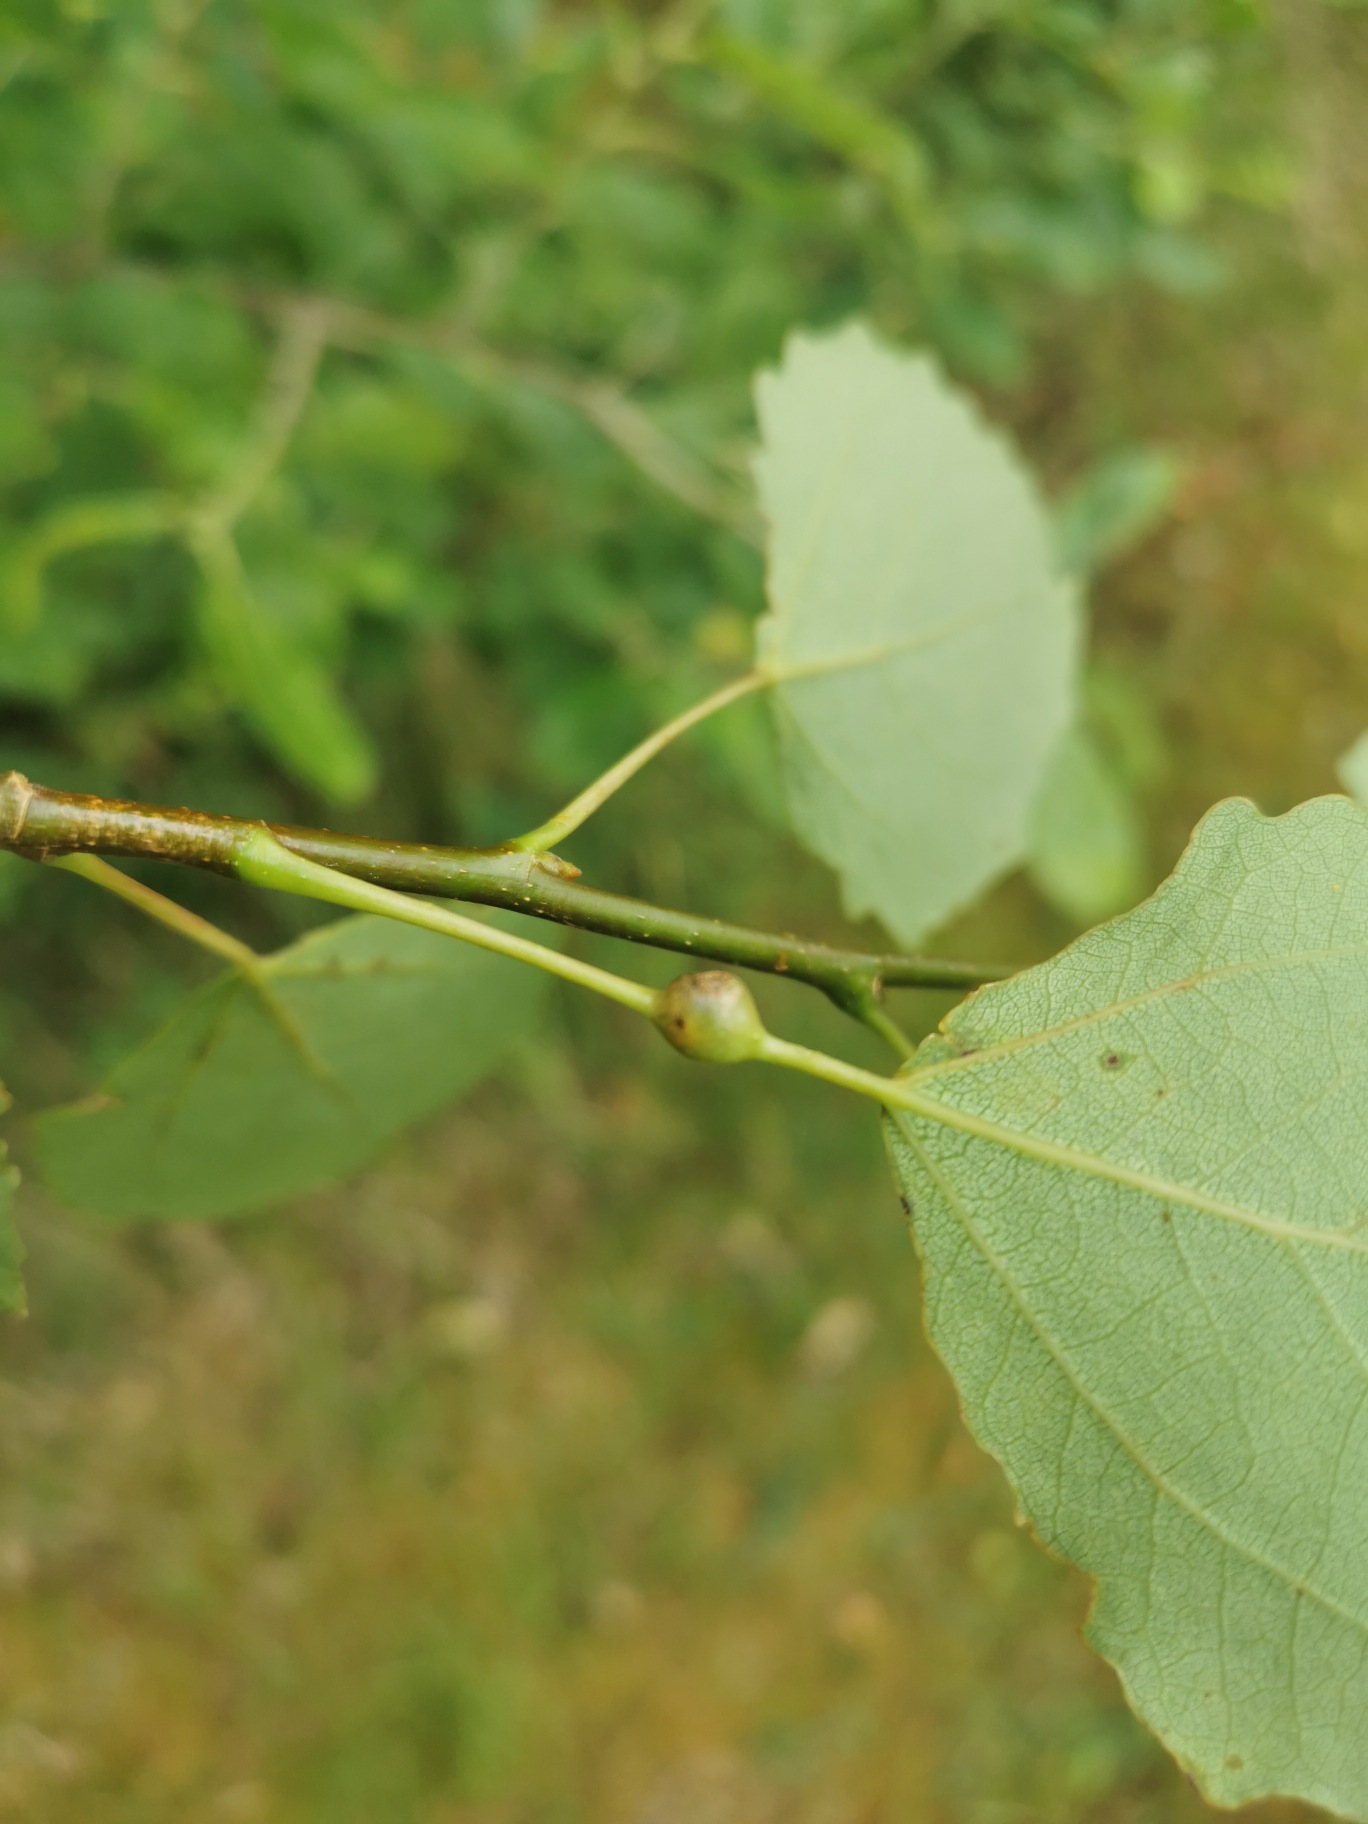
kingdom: Animalia
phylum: Arthropoda
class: Insecta
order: Diptera
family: Cecidomyiidae
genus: Contarinia
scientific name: Contarinia populi
